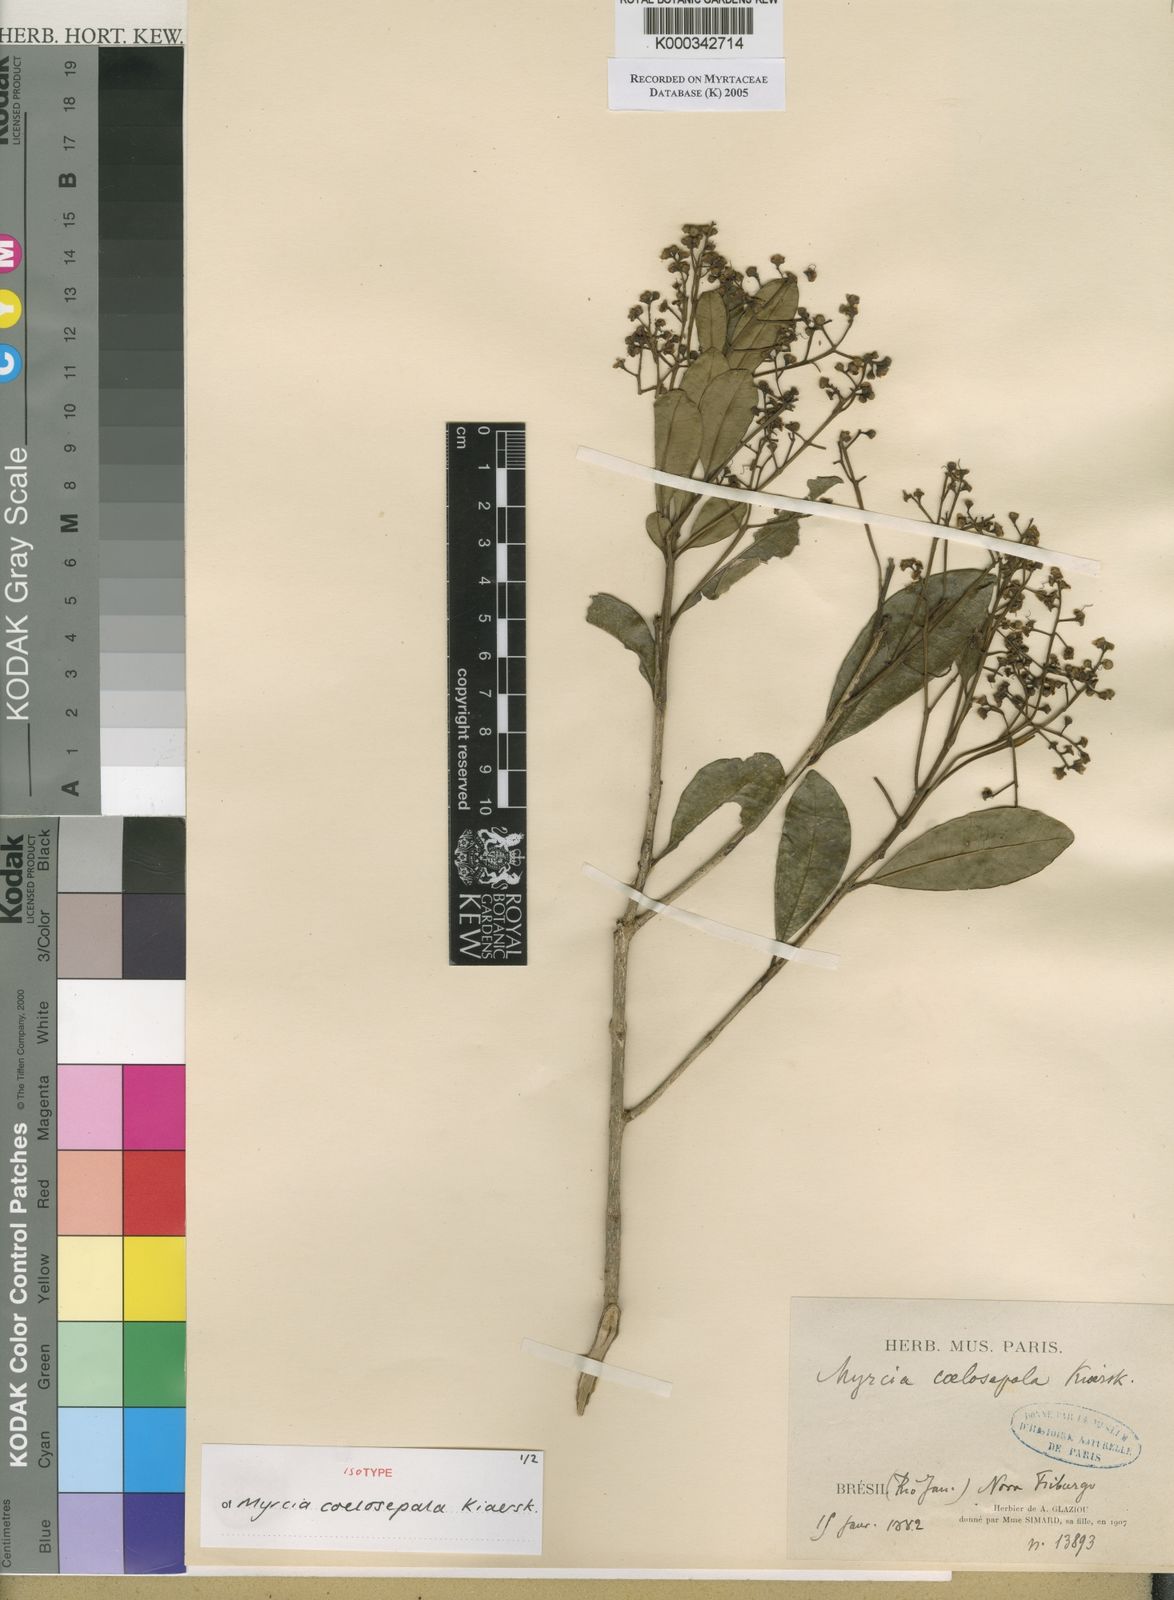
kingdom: Plantae
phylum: Tracheophyta
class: Magnoliopsida
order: Myrtales
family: Myrtaceae
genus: Myrcia
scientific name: Myrcia coelosepala
